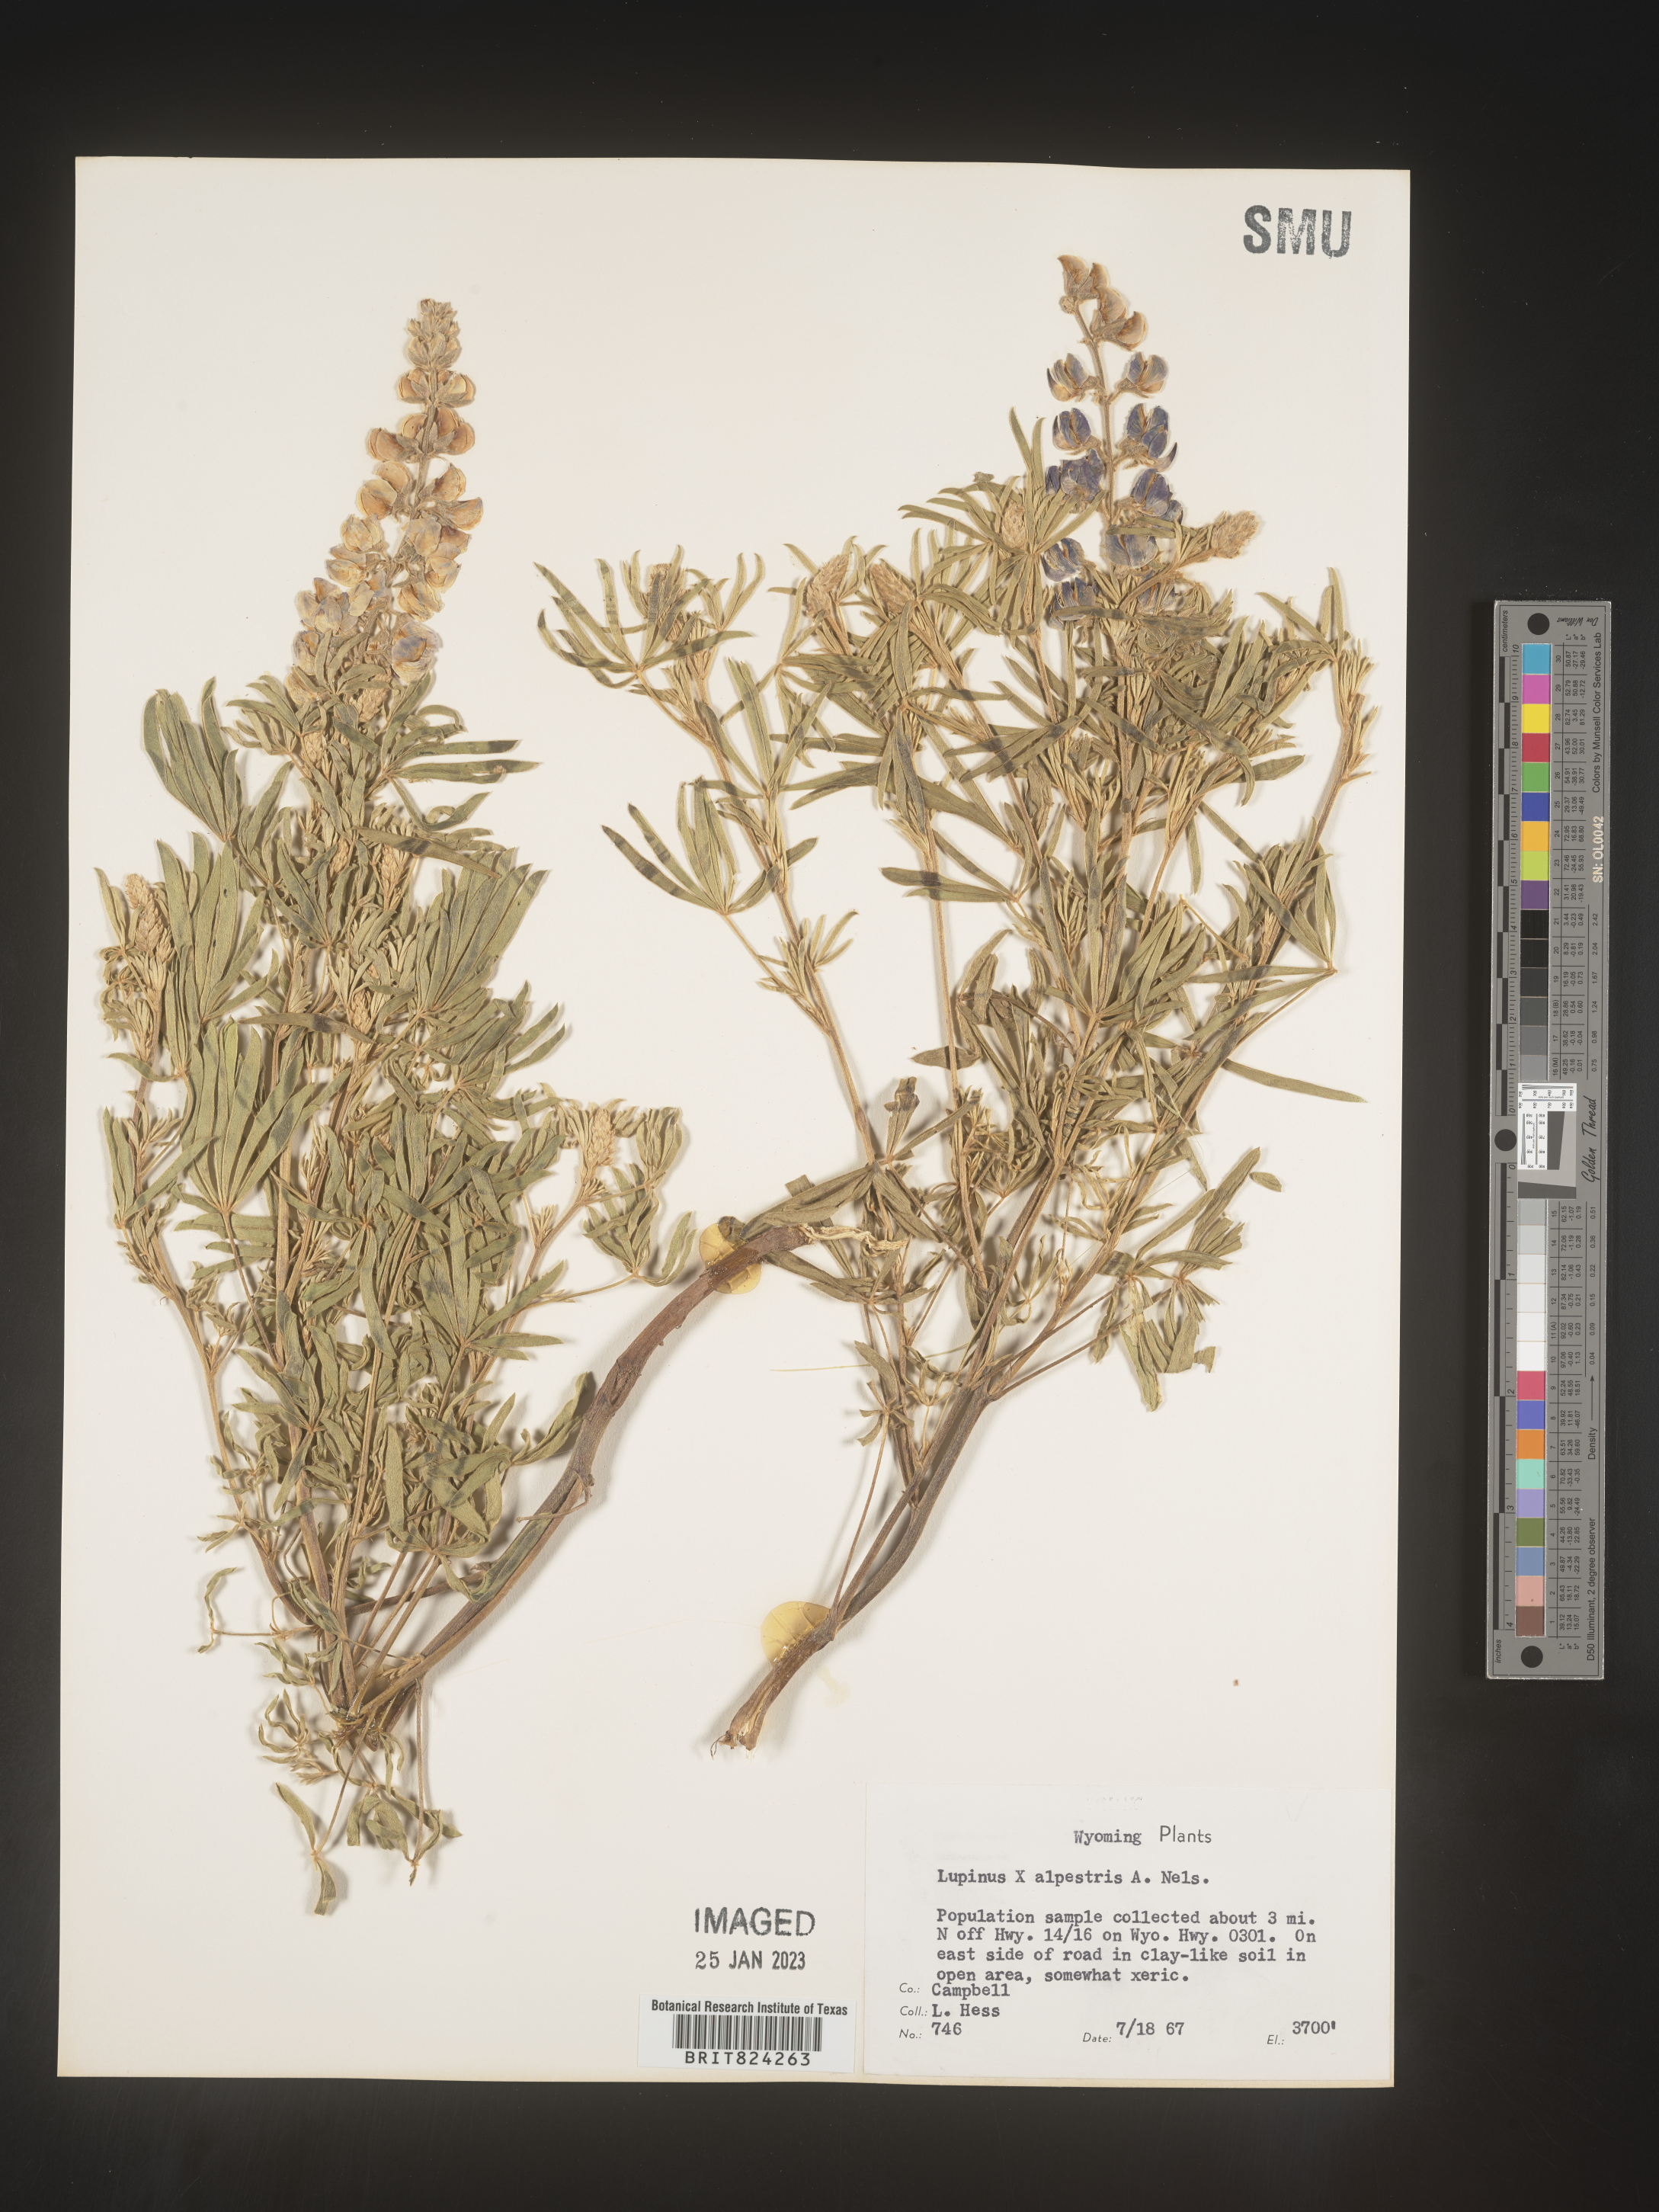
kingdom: Plantae
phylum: Tracheophyta
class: Magnoliopsida
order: Fabales
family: Fabaceae
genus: Lupinus
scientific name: Lupinus
